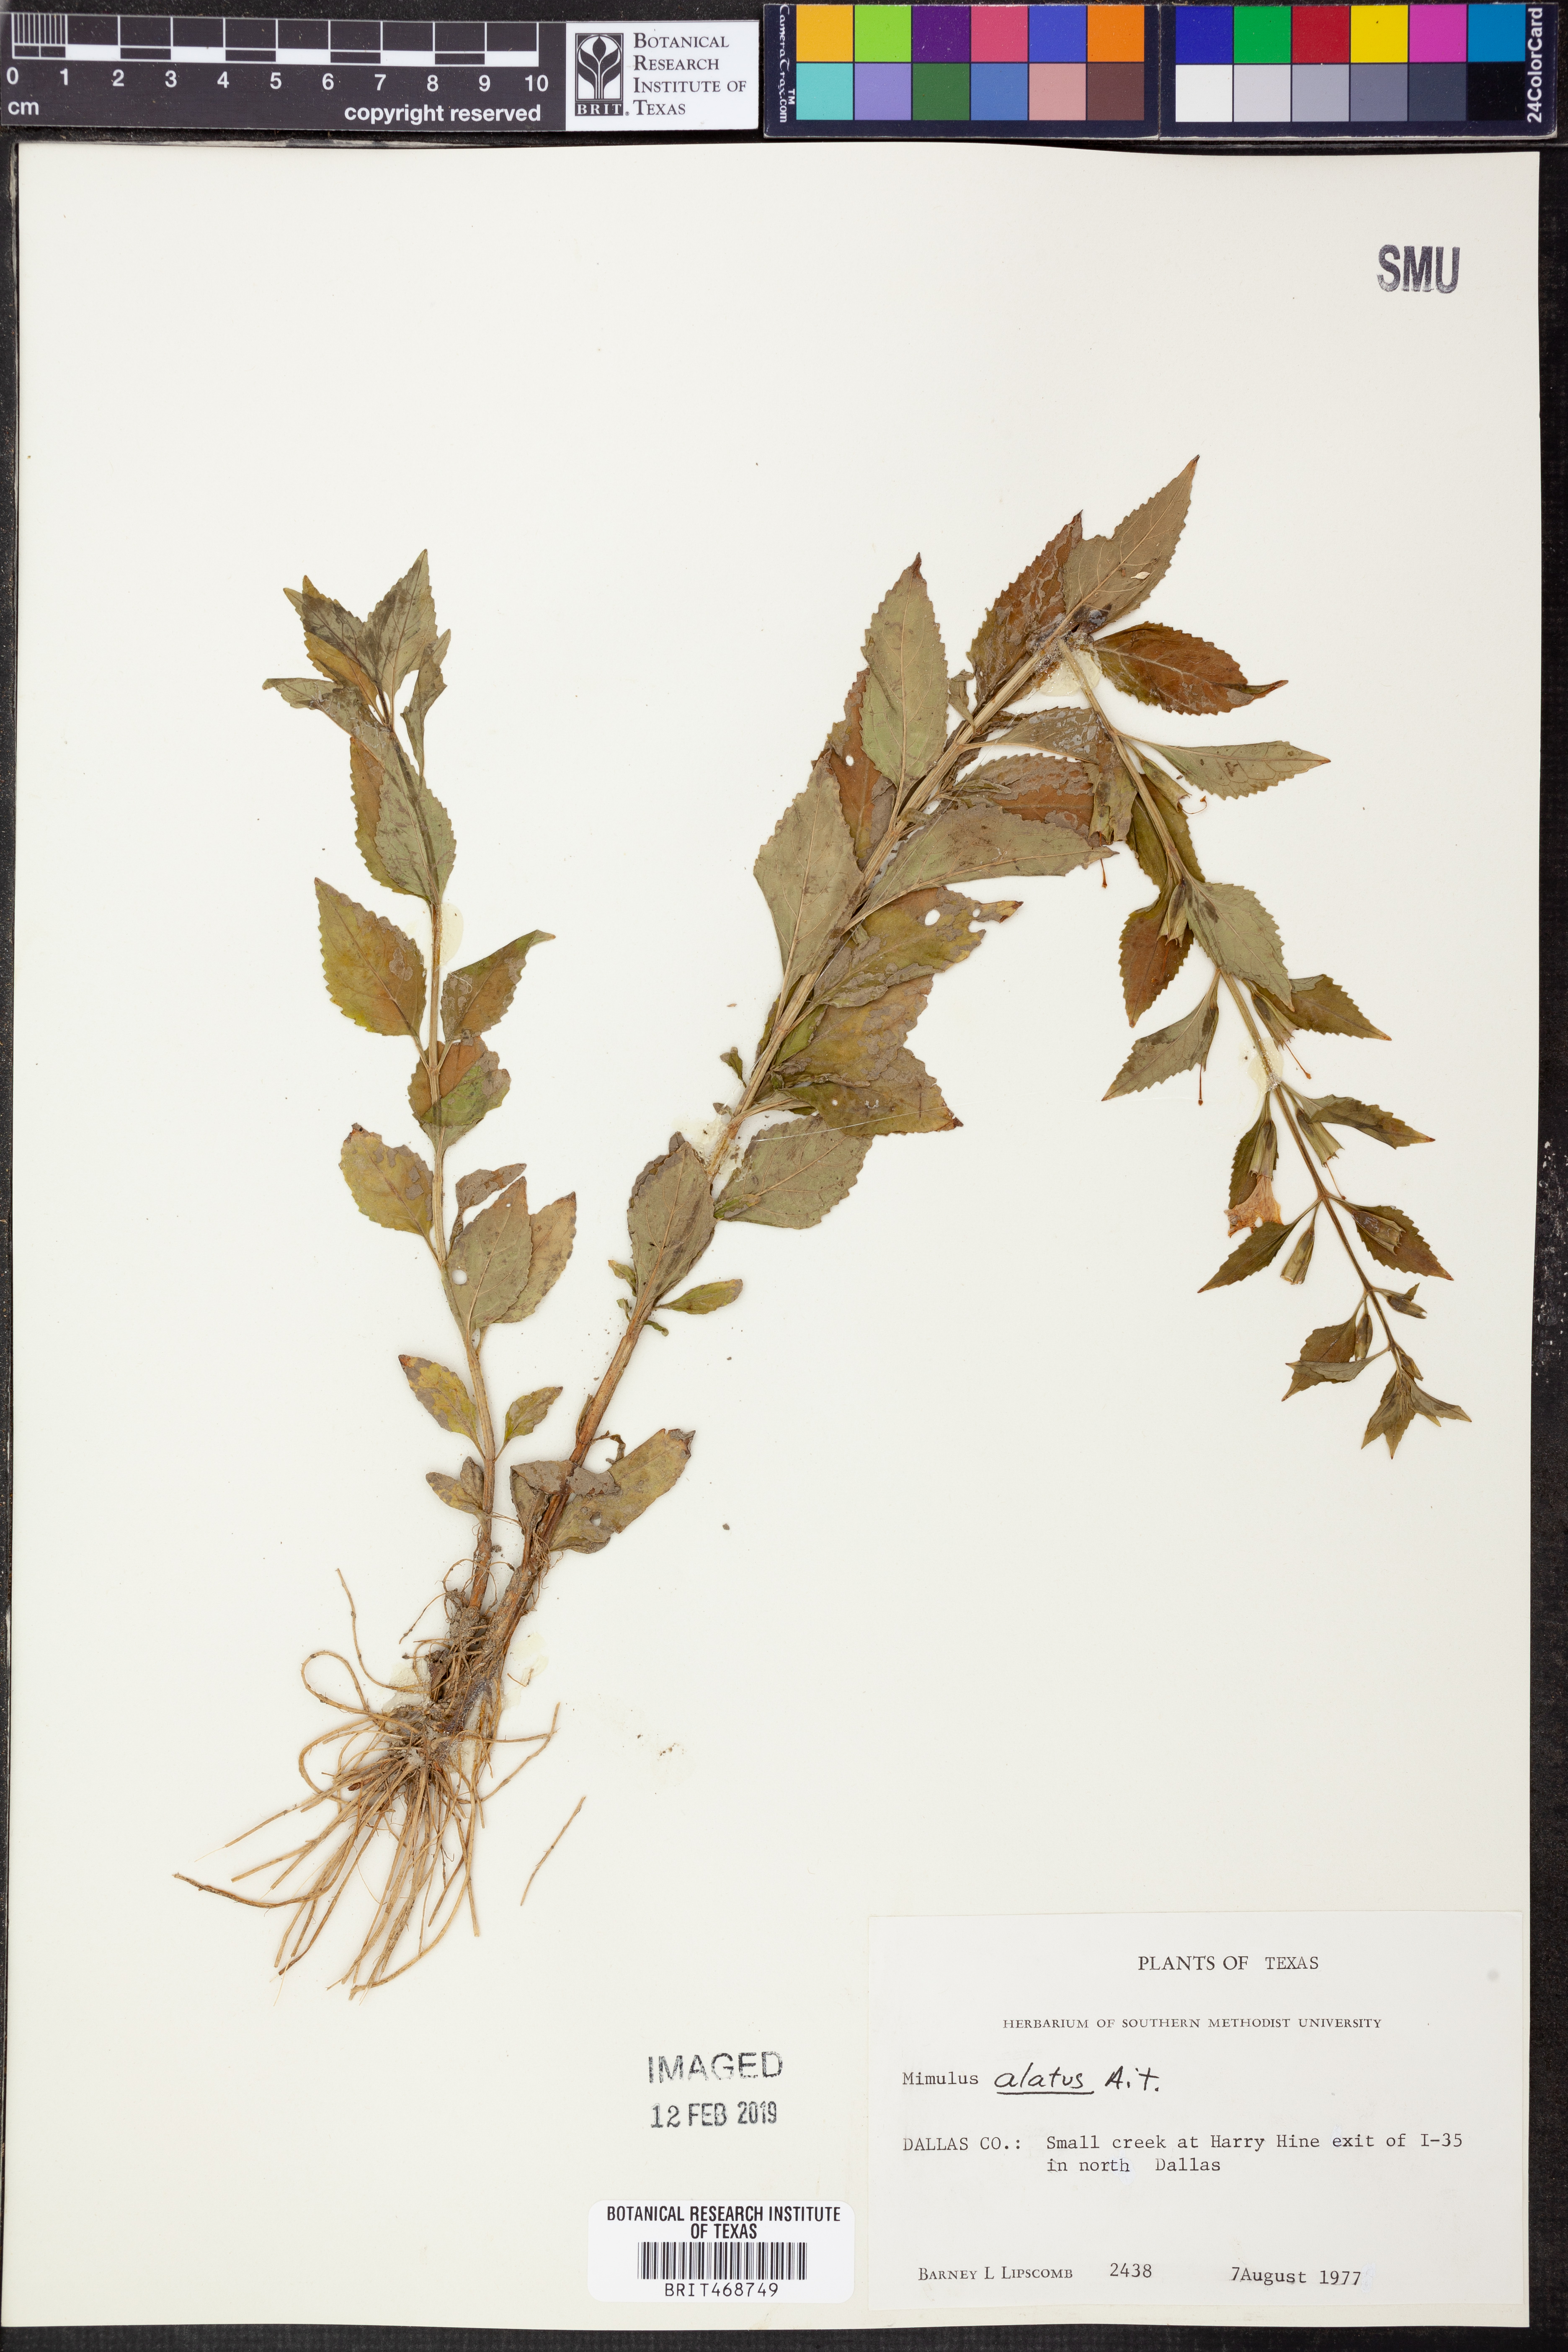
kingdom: Plantae
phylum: Tracheophyta
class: Magnoliopsida
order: Lamiales
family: Phrymaceae
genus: Mimulus
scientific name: Mimulus alatus
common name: Sharp-wing monkey-flower
